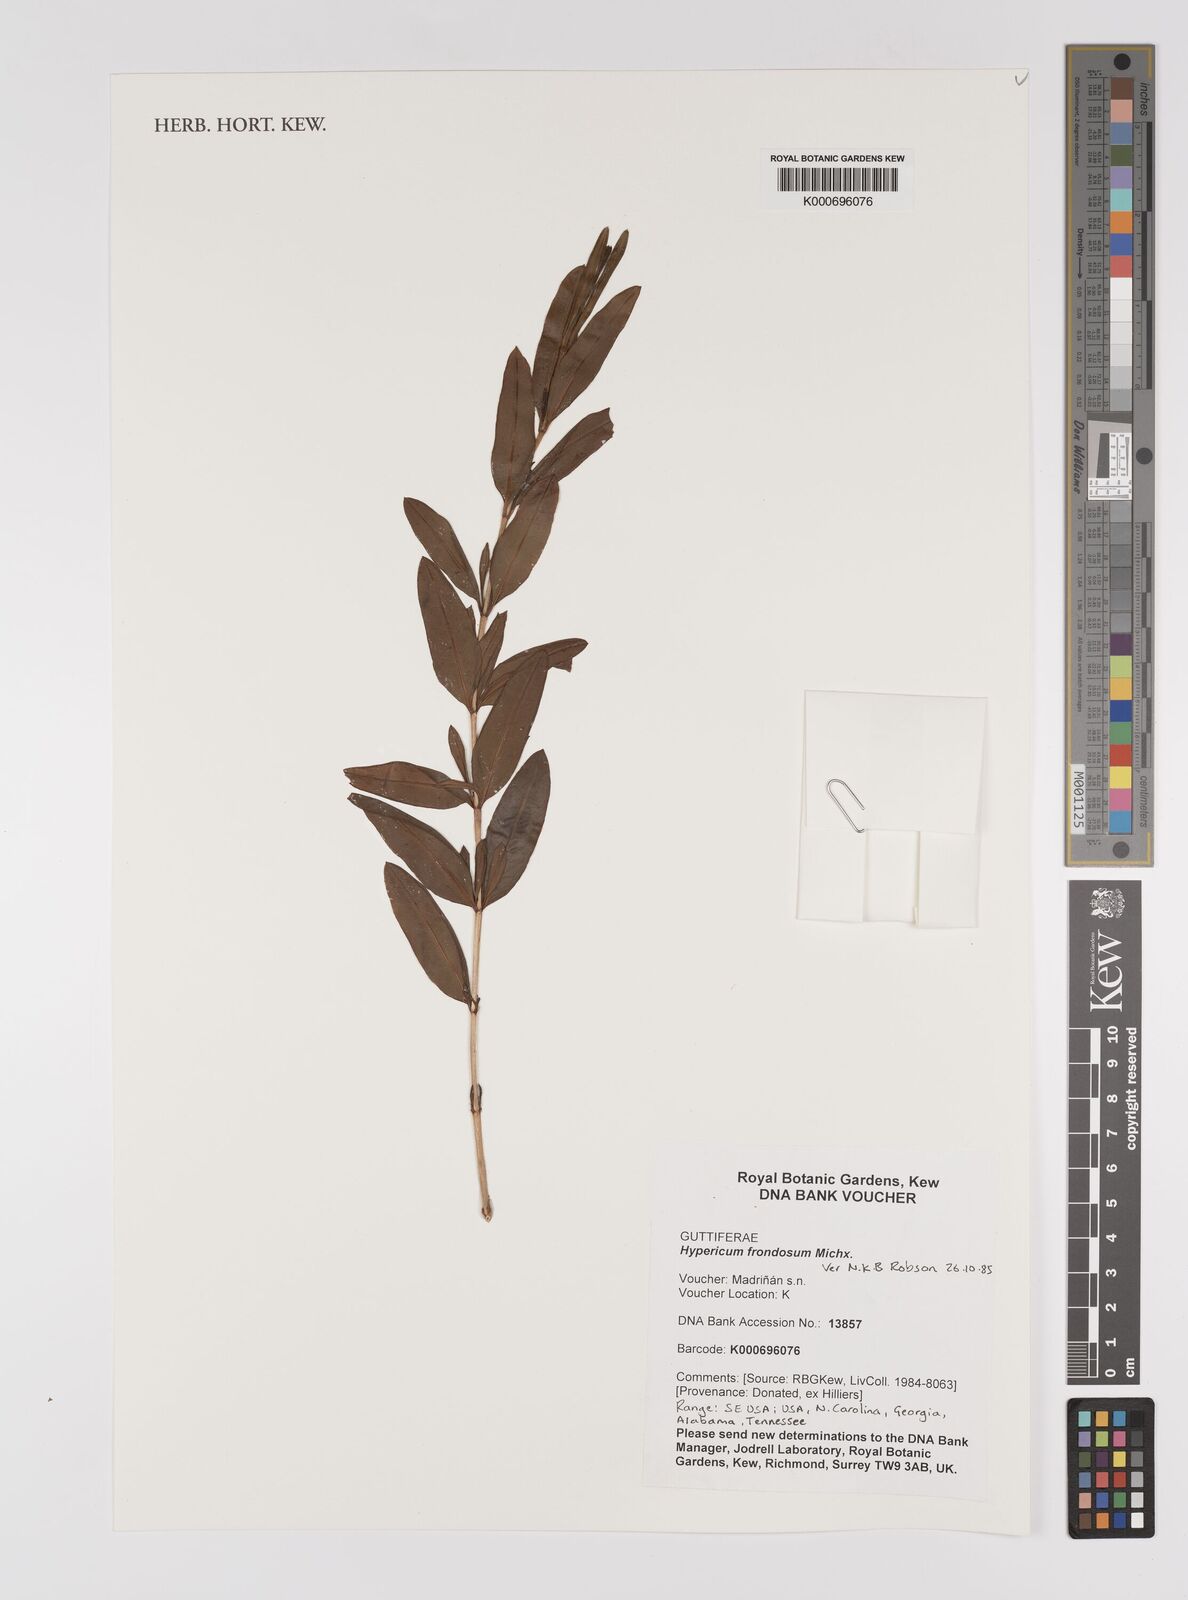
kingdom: Plantae
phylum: Tracheophyta
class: Magnoliopsida
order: Malpighiales
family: Hypericaceae
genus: Hypericum
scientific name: Hypericum frondosum
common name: Golden st. john's-wort
